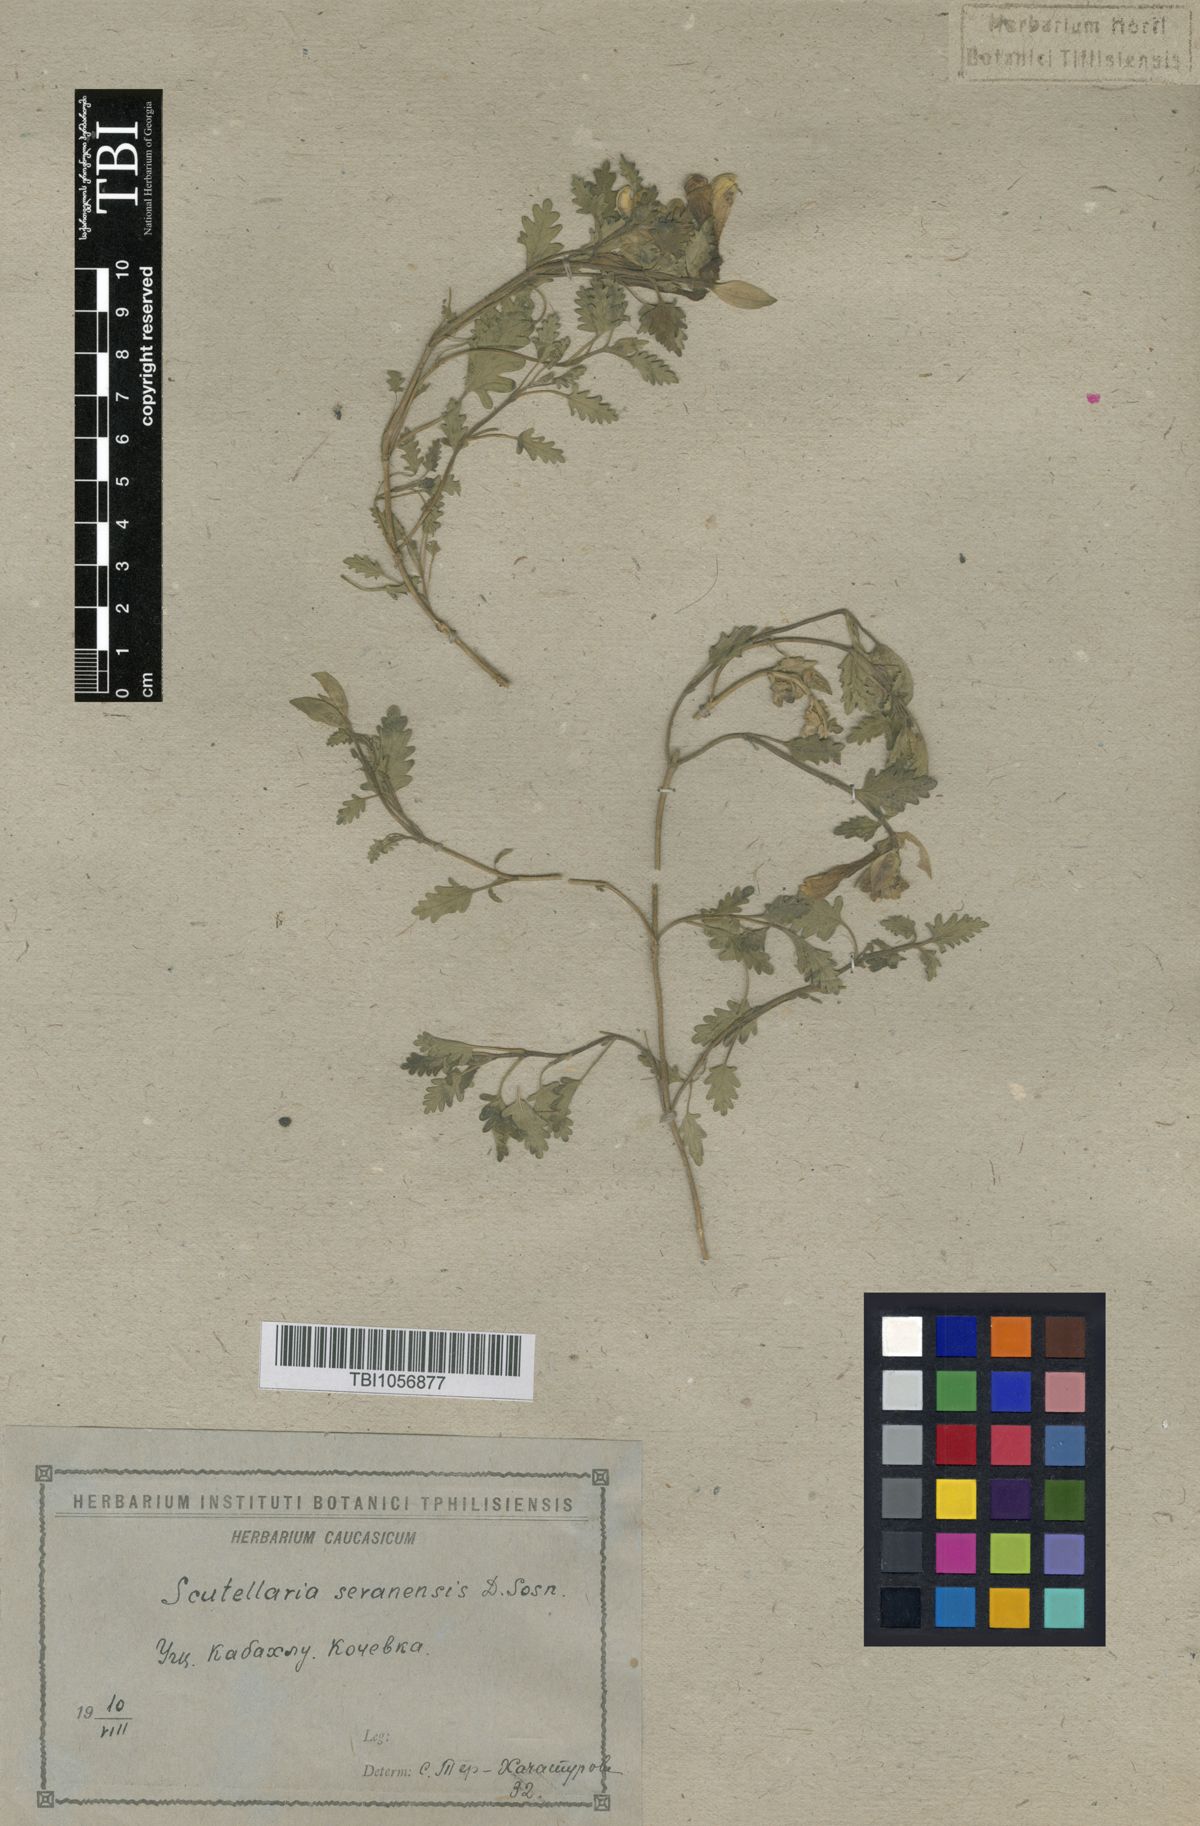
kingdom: Plantae
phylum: Tracheophyta
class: Magnoliopsida
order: Lamiales
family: Lamiaceae
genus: Scutellaria
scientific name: Scutellaria sevanensis
